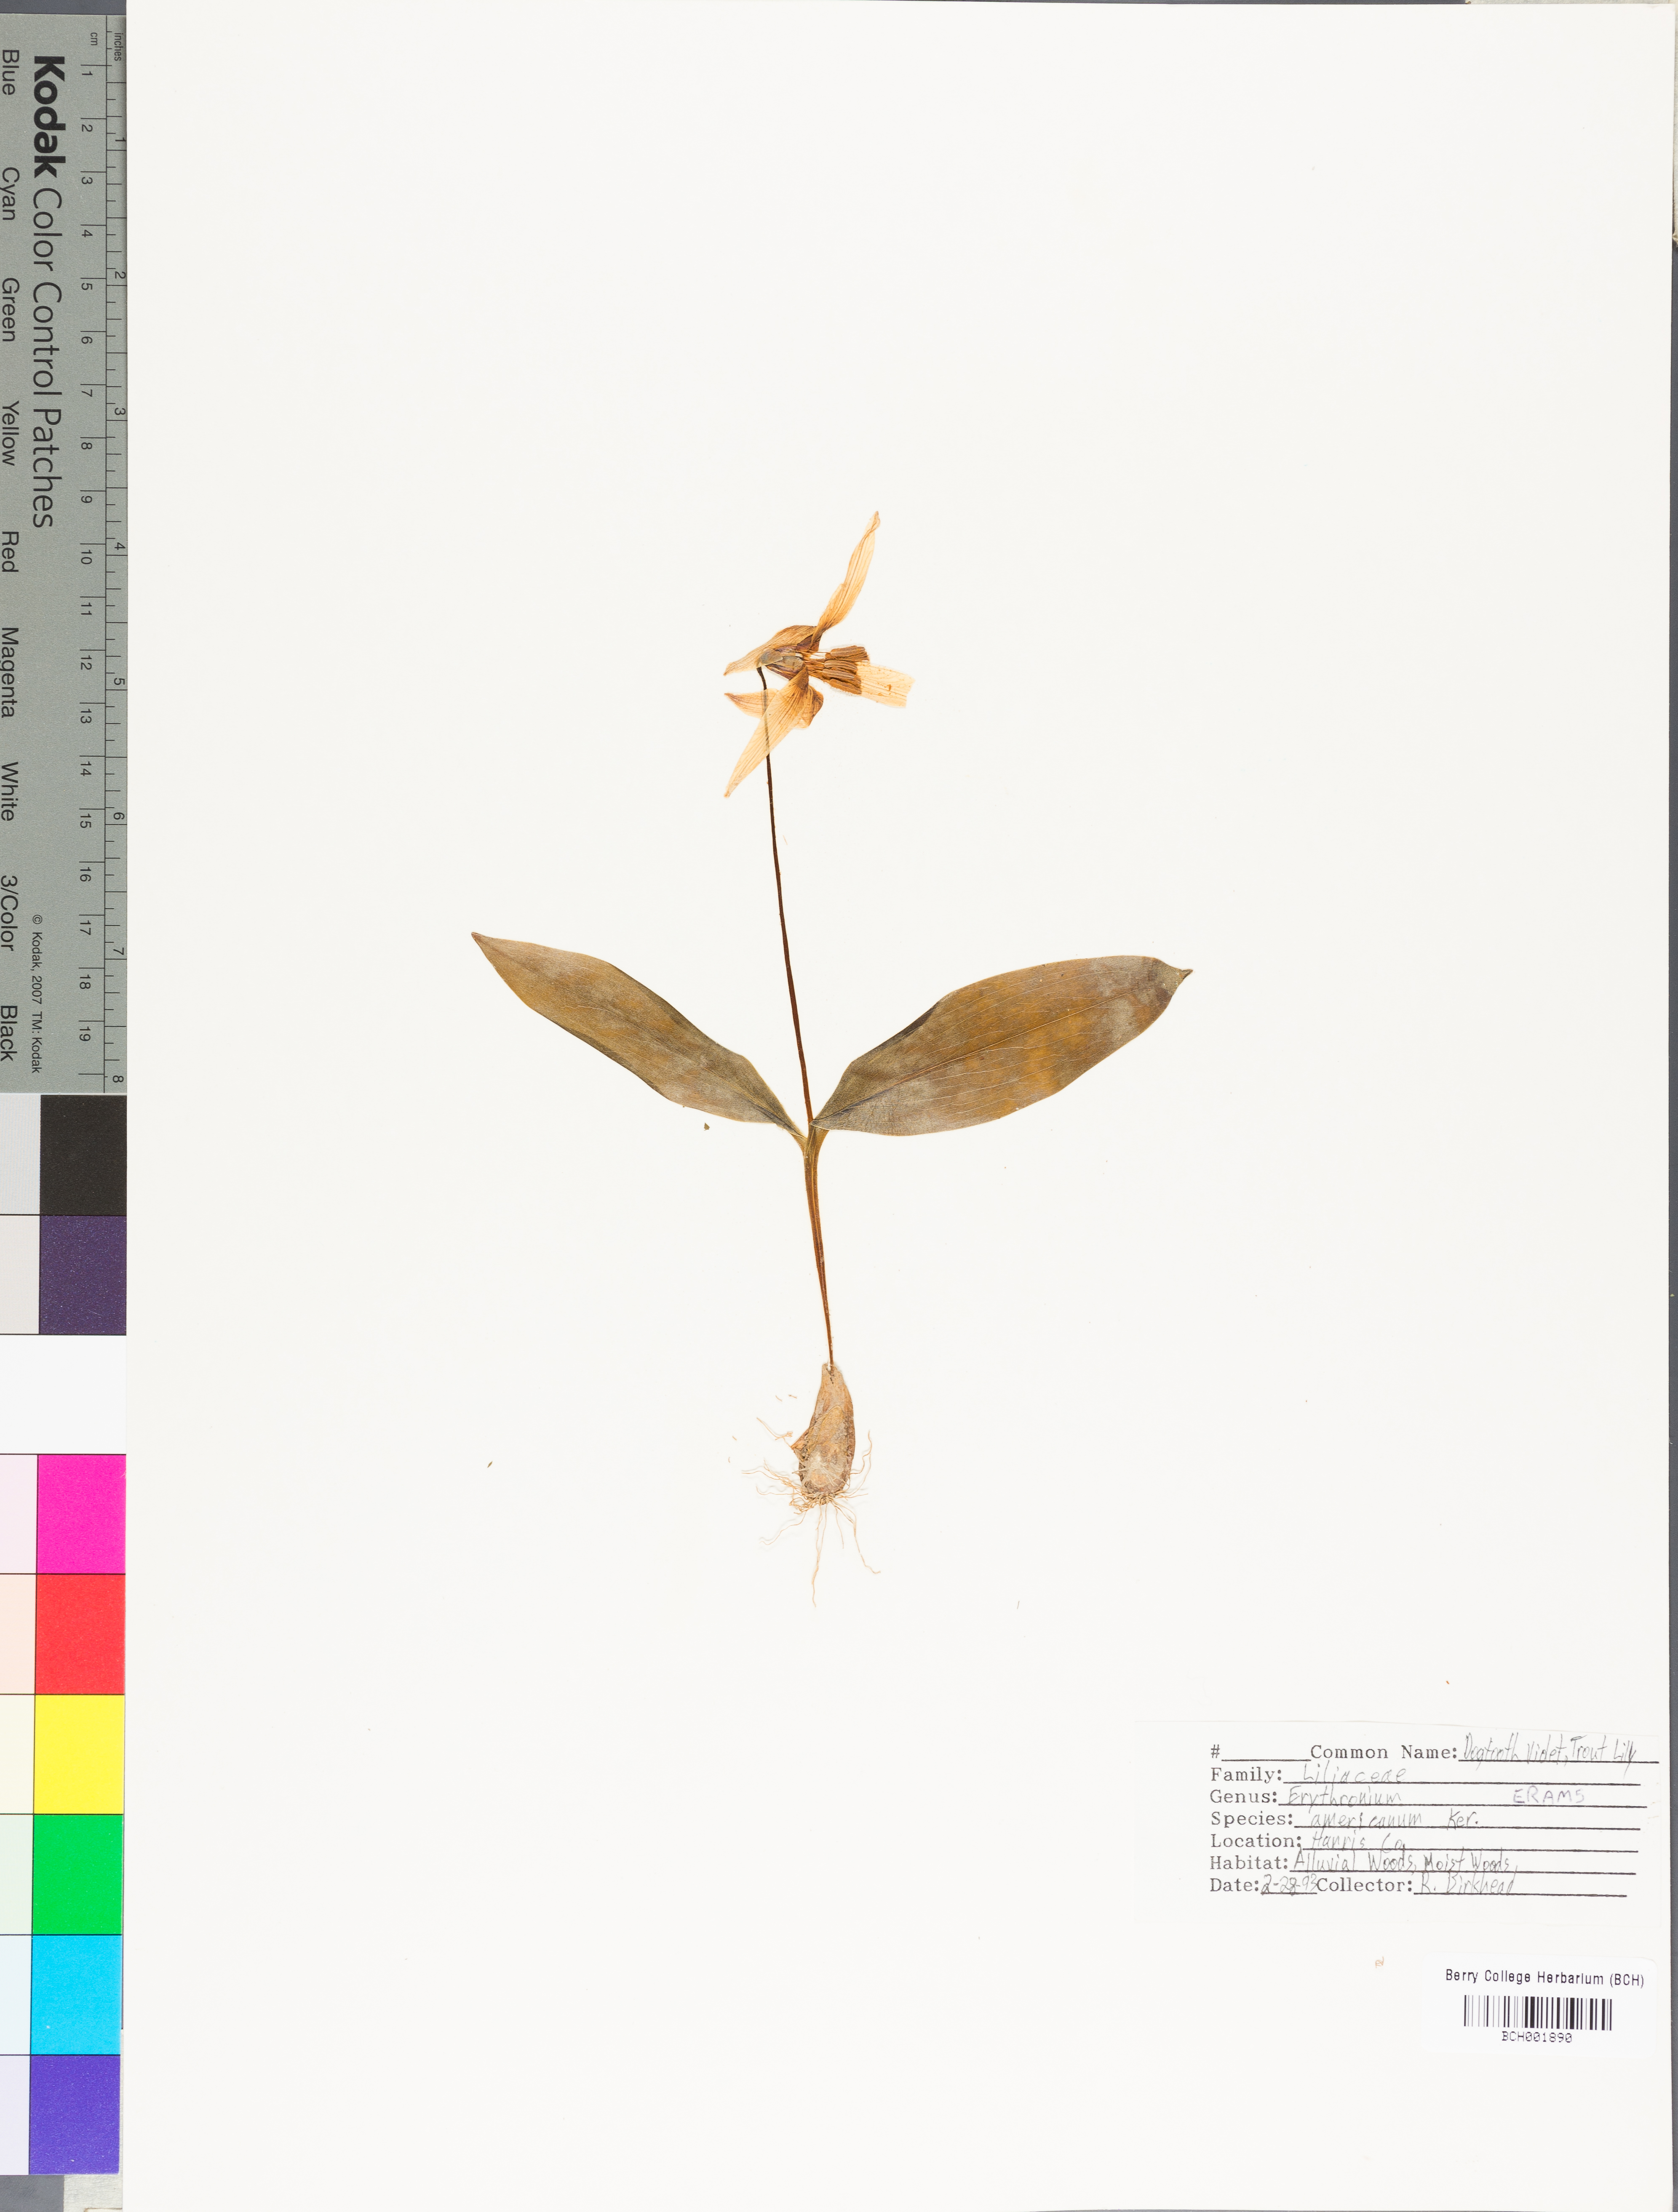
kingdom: Plantae
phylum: Tracheophyta
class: Liliopsida
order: Liliales
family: Liliaceae
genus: Erythronium
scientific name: Erythronium americanum
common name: Yellow adder's-tongue
